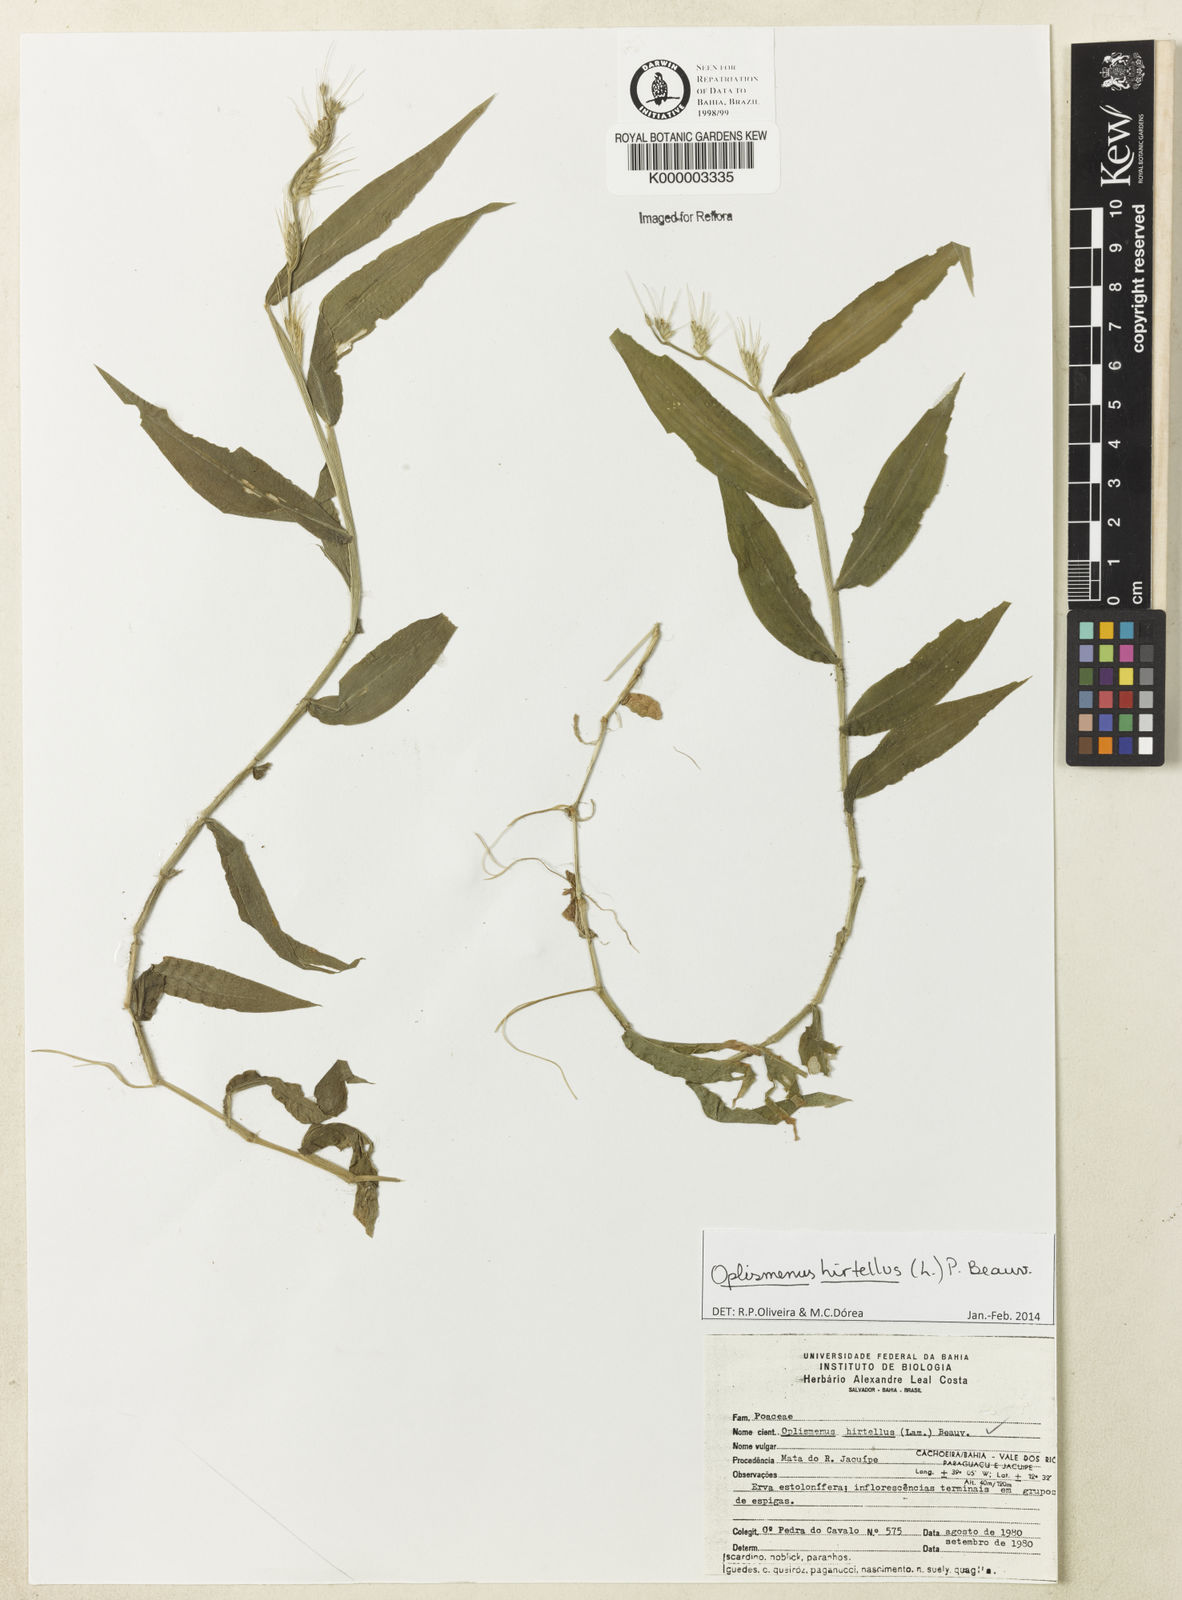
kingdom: Plantae
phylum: Tracheophyta
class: Liliopsida
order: Poales
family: Poaceae
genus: Oplismenus
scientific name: Oplismenus hirtellus
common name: Basketgrass
